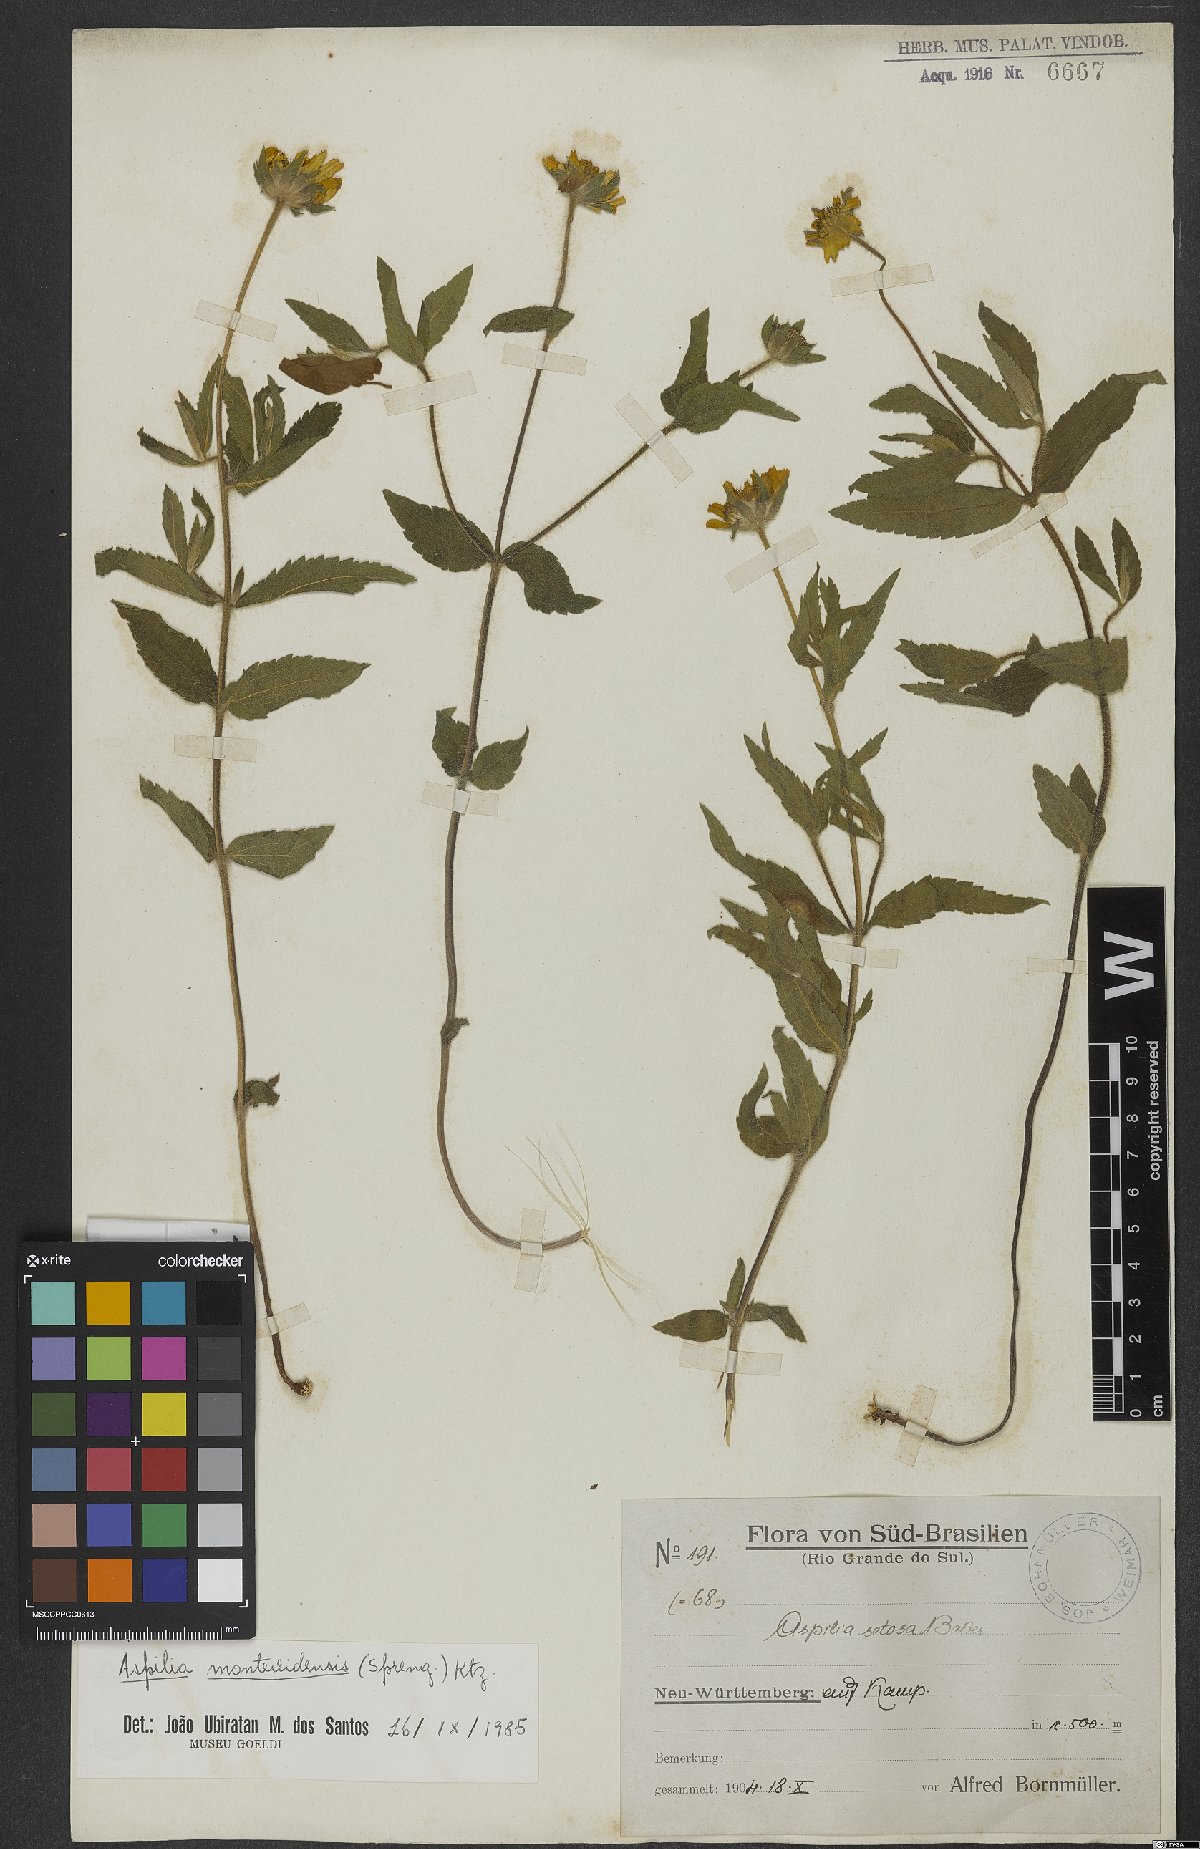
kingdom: Plantae
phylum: Tracheophyta
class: Magnoliopsida
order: Asterales
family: Asteraceae
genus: Wedelia
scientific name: Wedelia montevidensis
